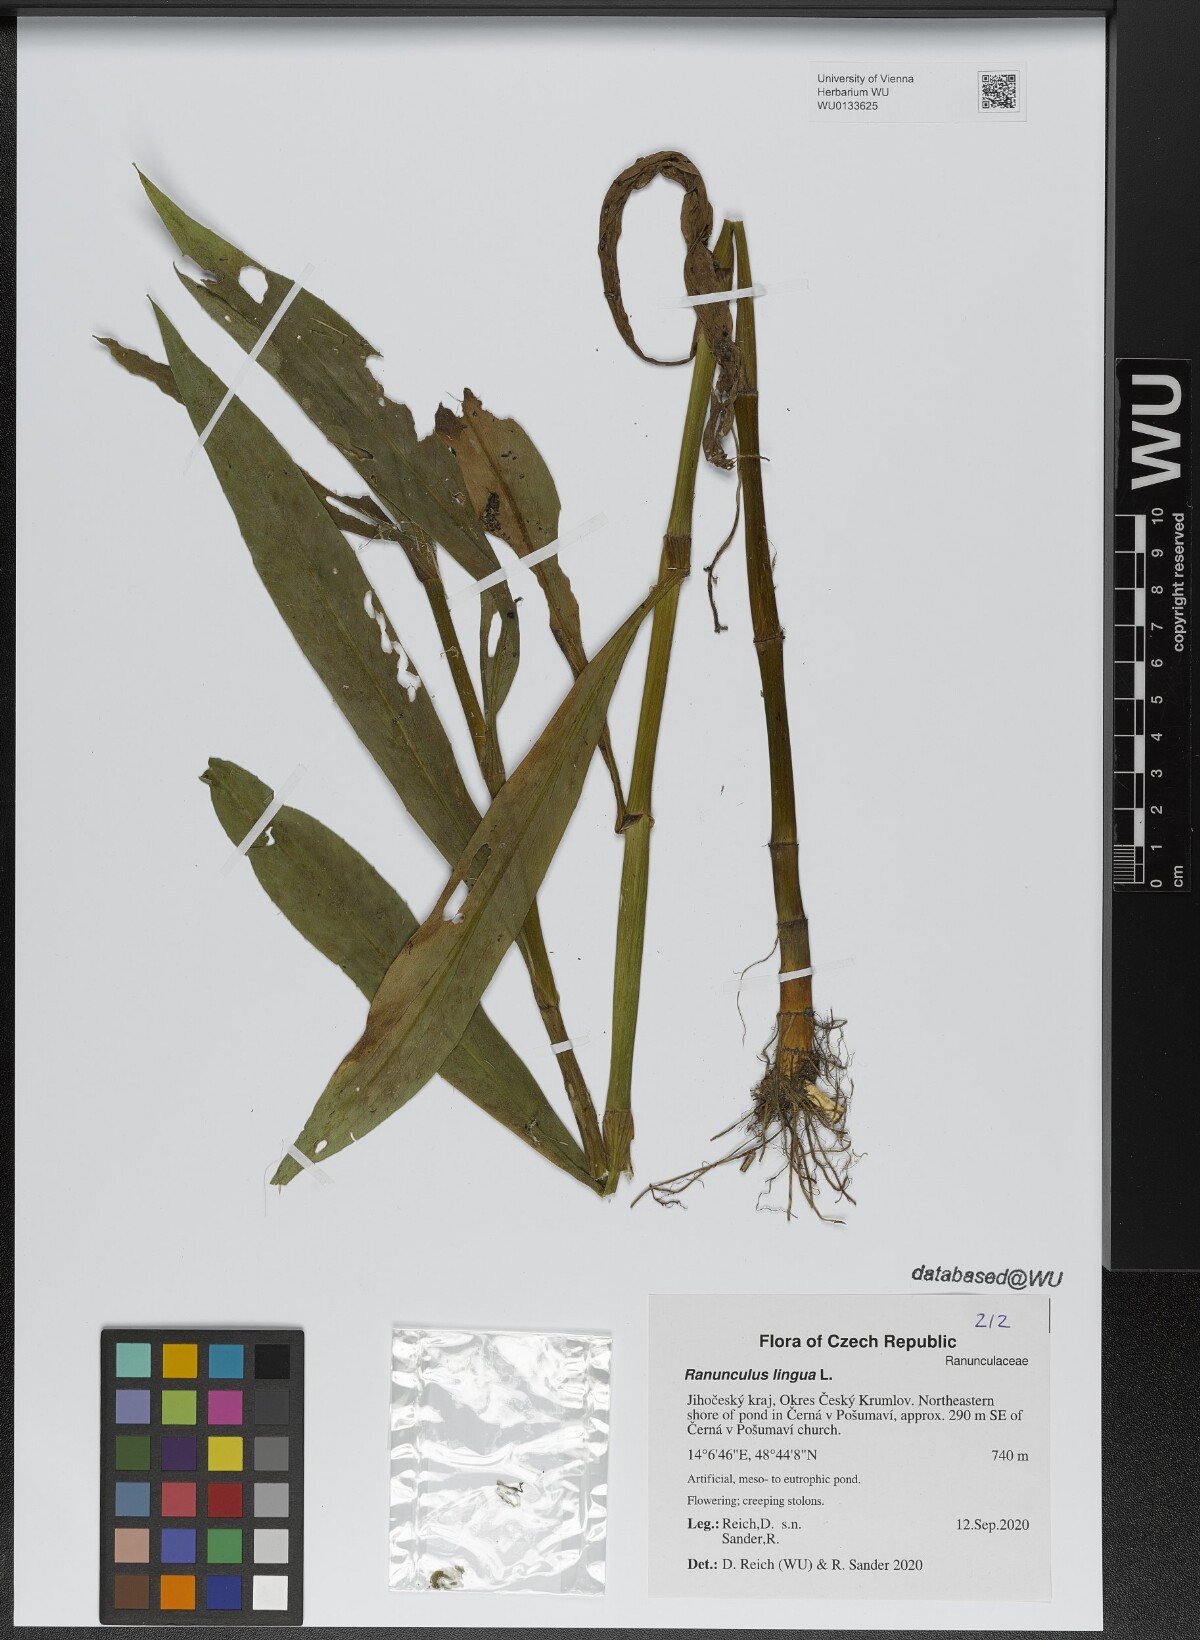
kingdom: Plantae
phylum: Tracheophyta
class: Magnoliopsida
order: Ranunculales
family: Ranunculaceae
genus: Ranunculus
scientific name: Ranunculus lingua
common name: Greater spearwort
